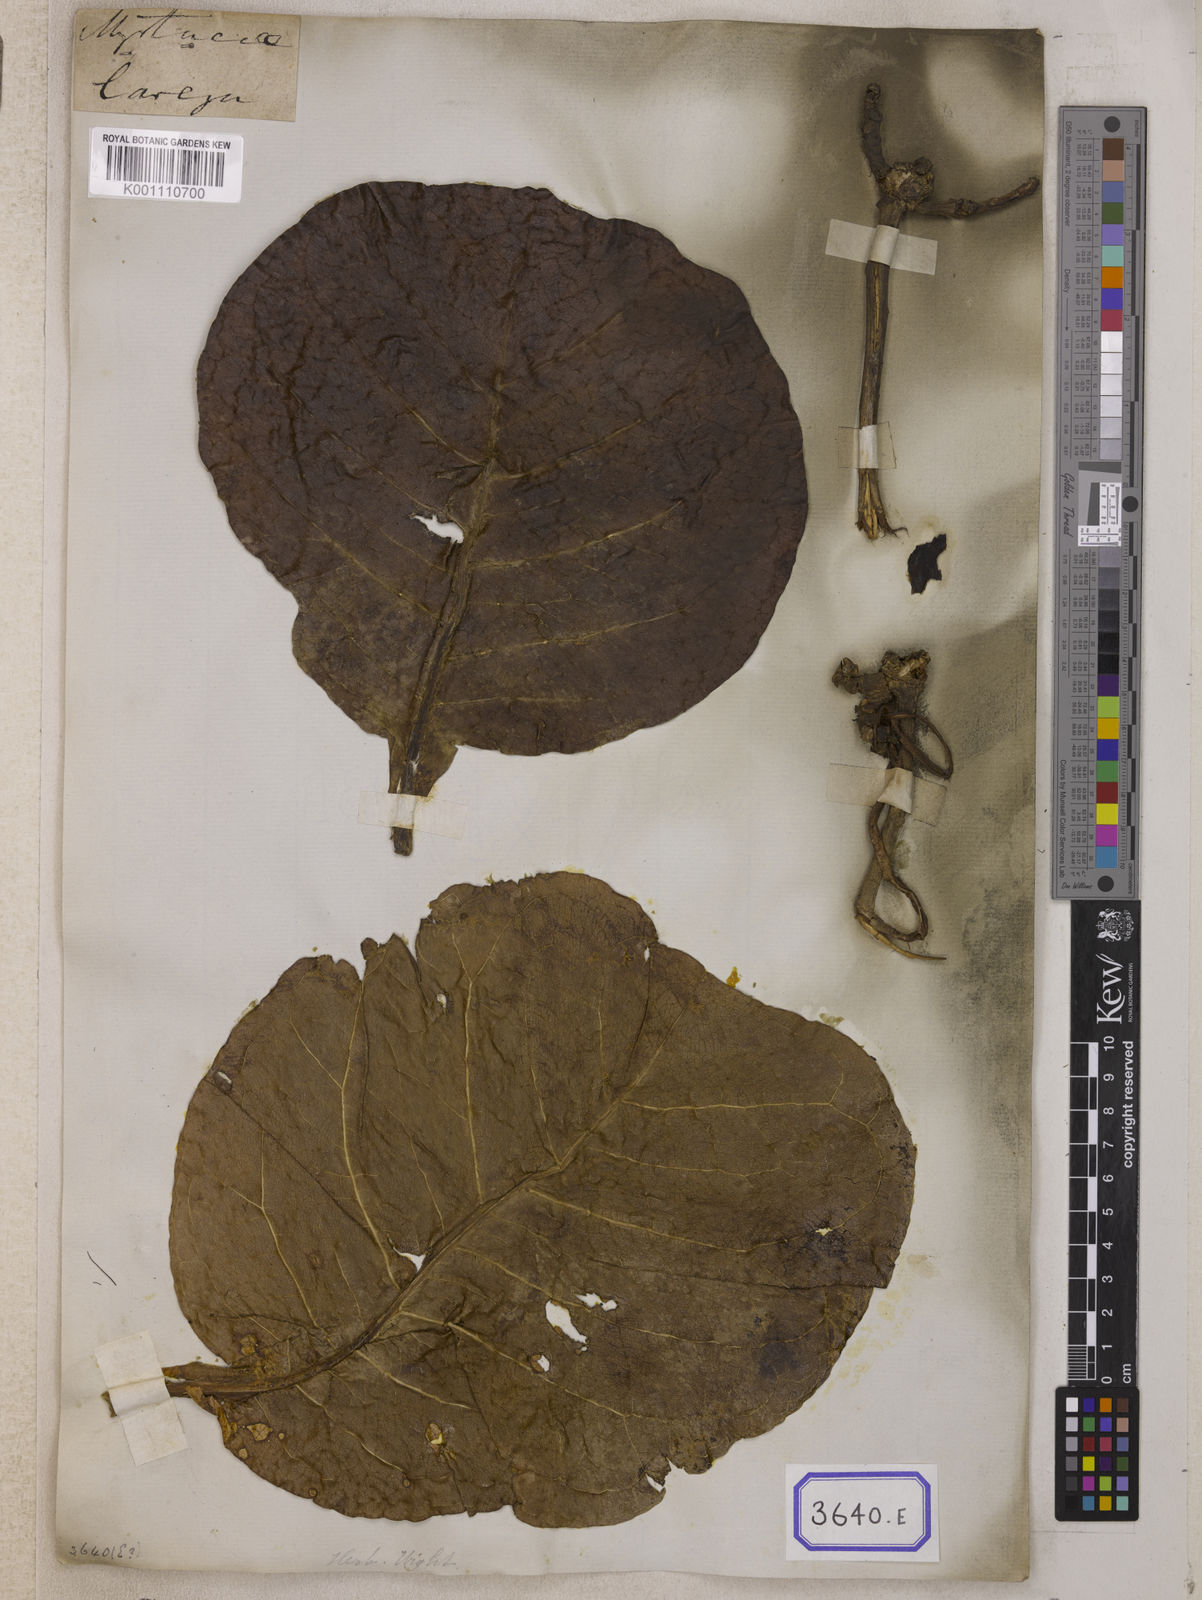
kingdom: Plantae
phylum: Tracheophyta
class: Magnoliopsida
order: Ericales
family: Lecythidaceae
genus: Careya
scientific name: Careya arborea
